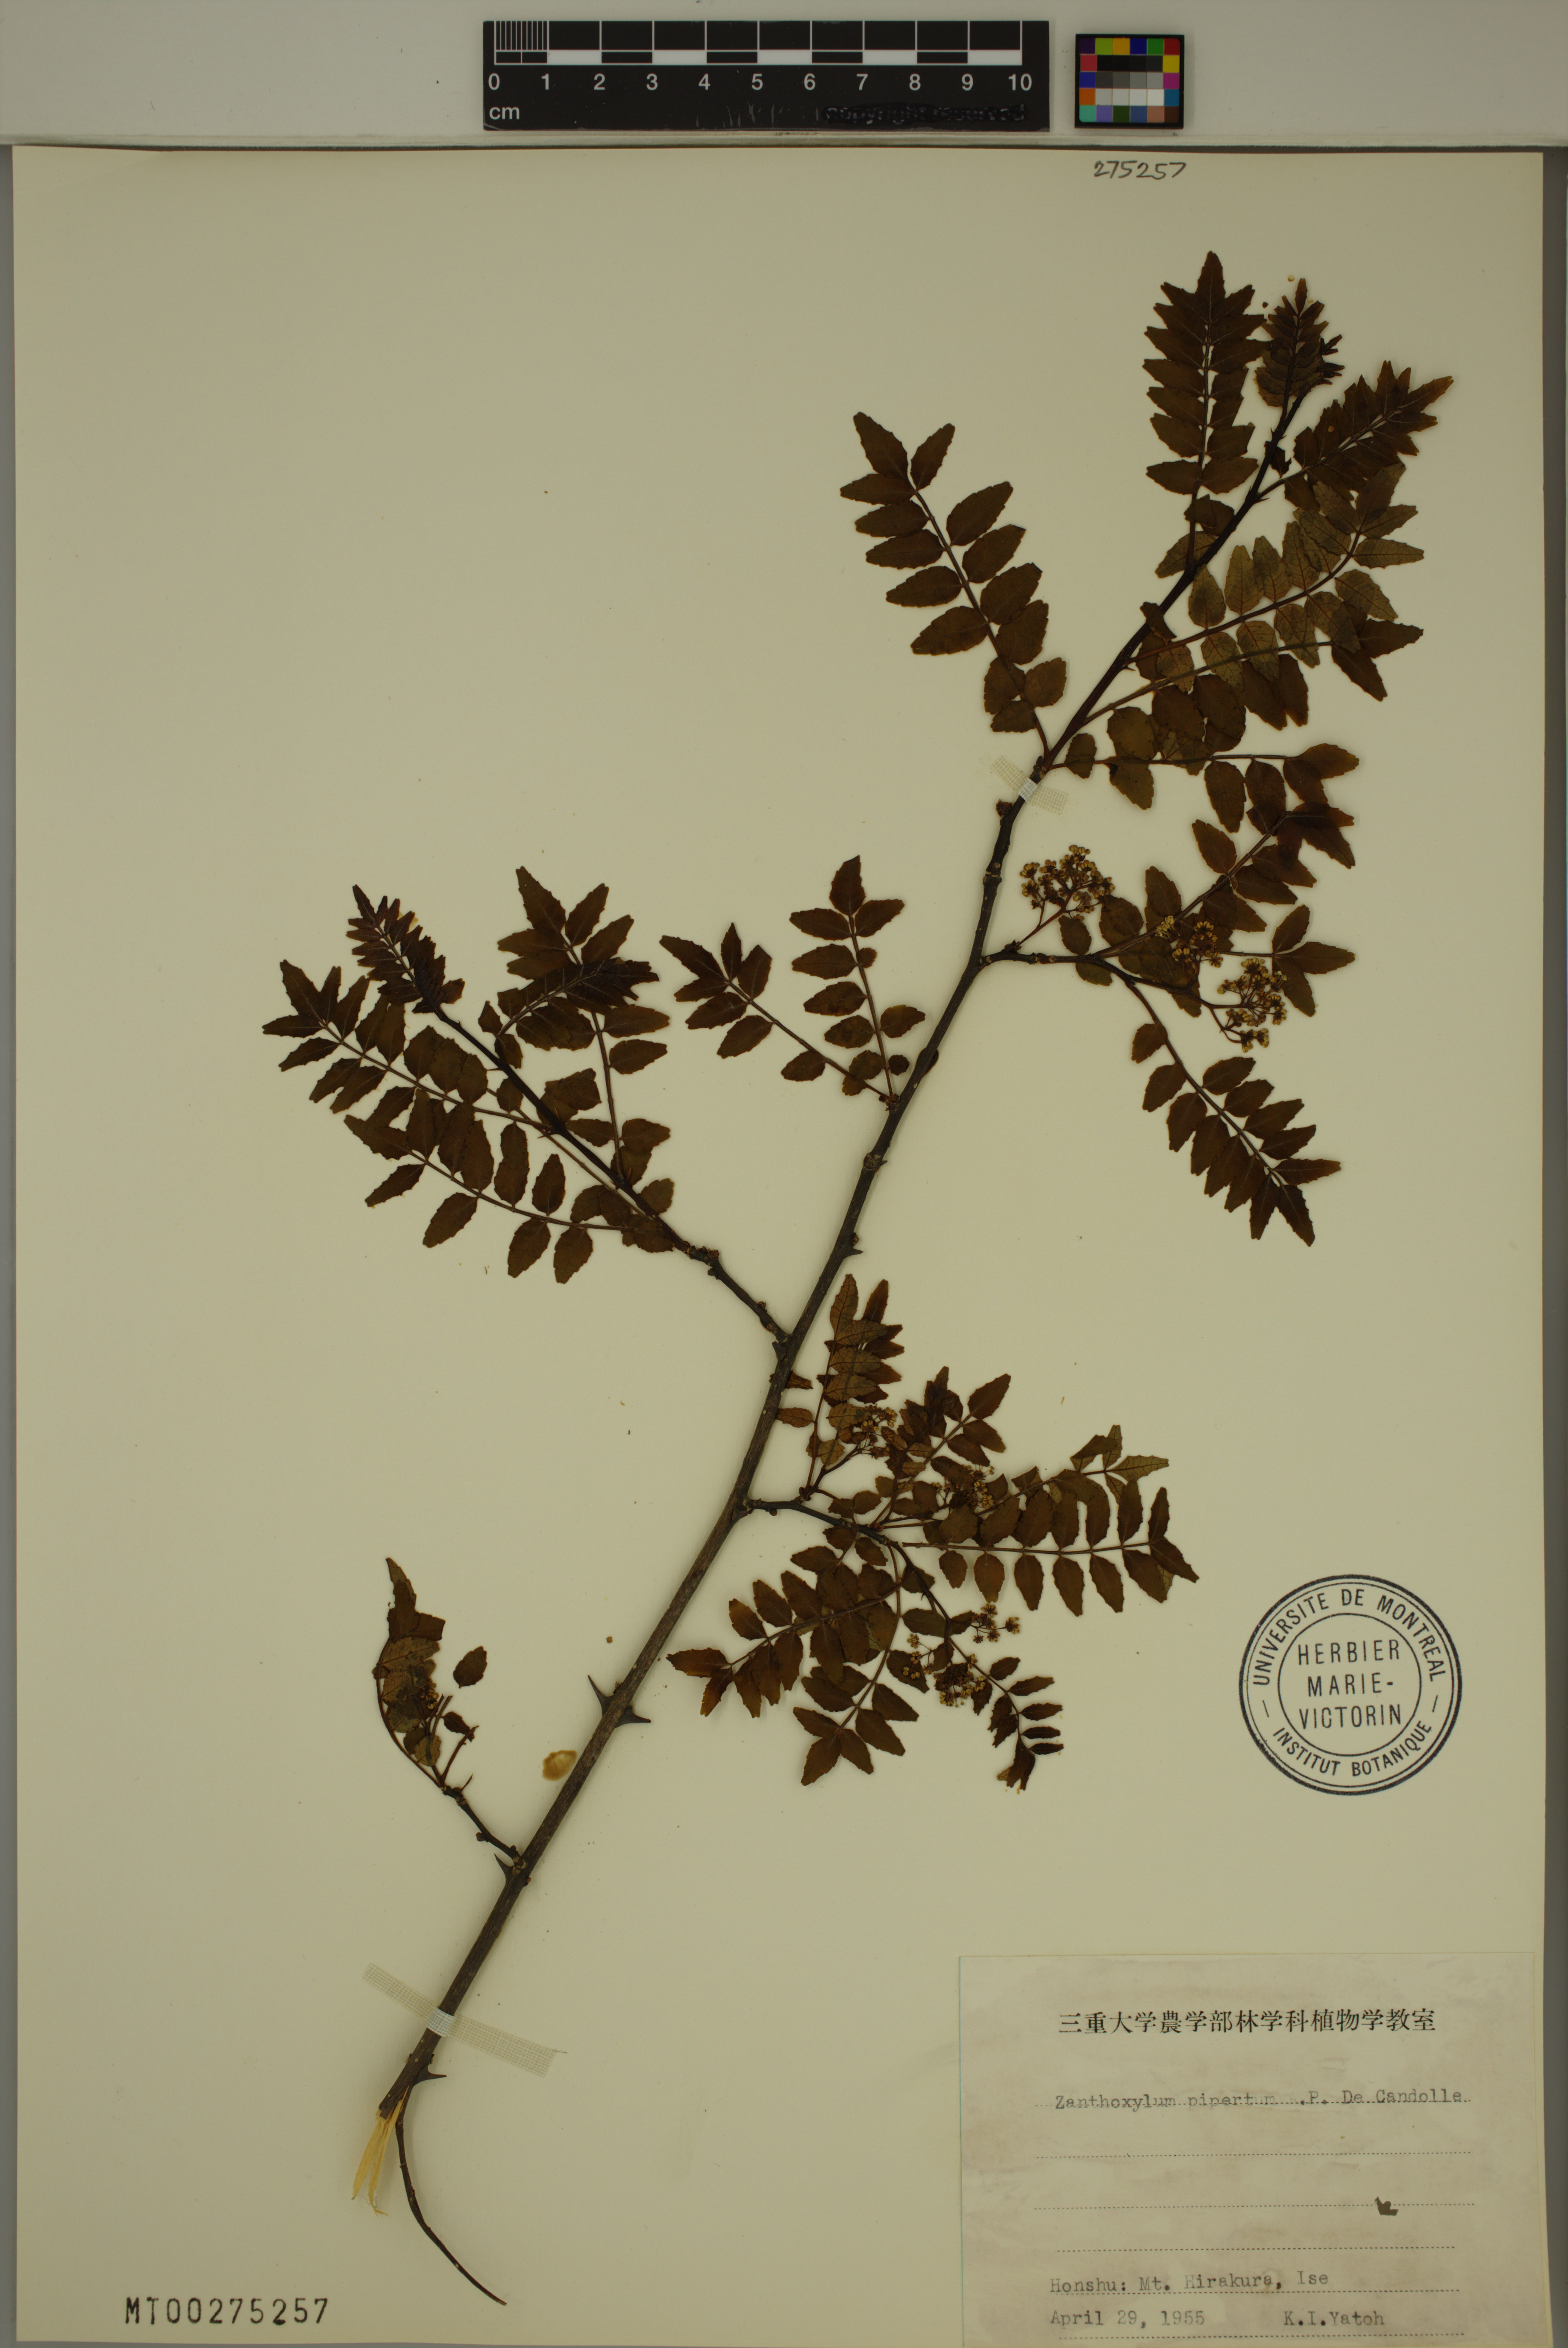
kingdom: Plantae
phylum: Tracheophyta
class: Magnoliopsida
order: Sapindales
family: Rutaceae
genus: Zanthoxylum
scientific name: Zanthoxylum piperitum
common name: Japanese-pepper
